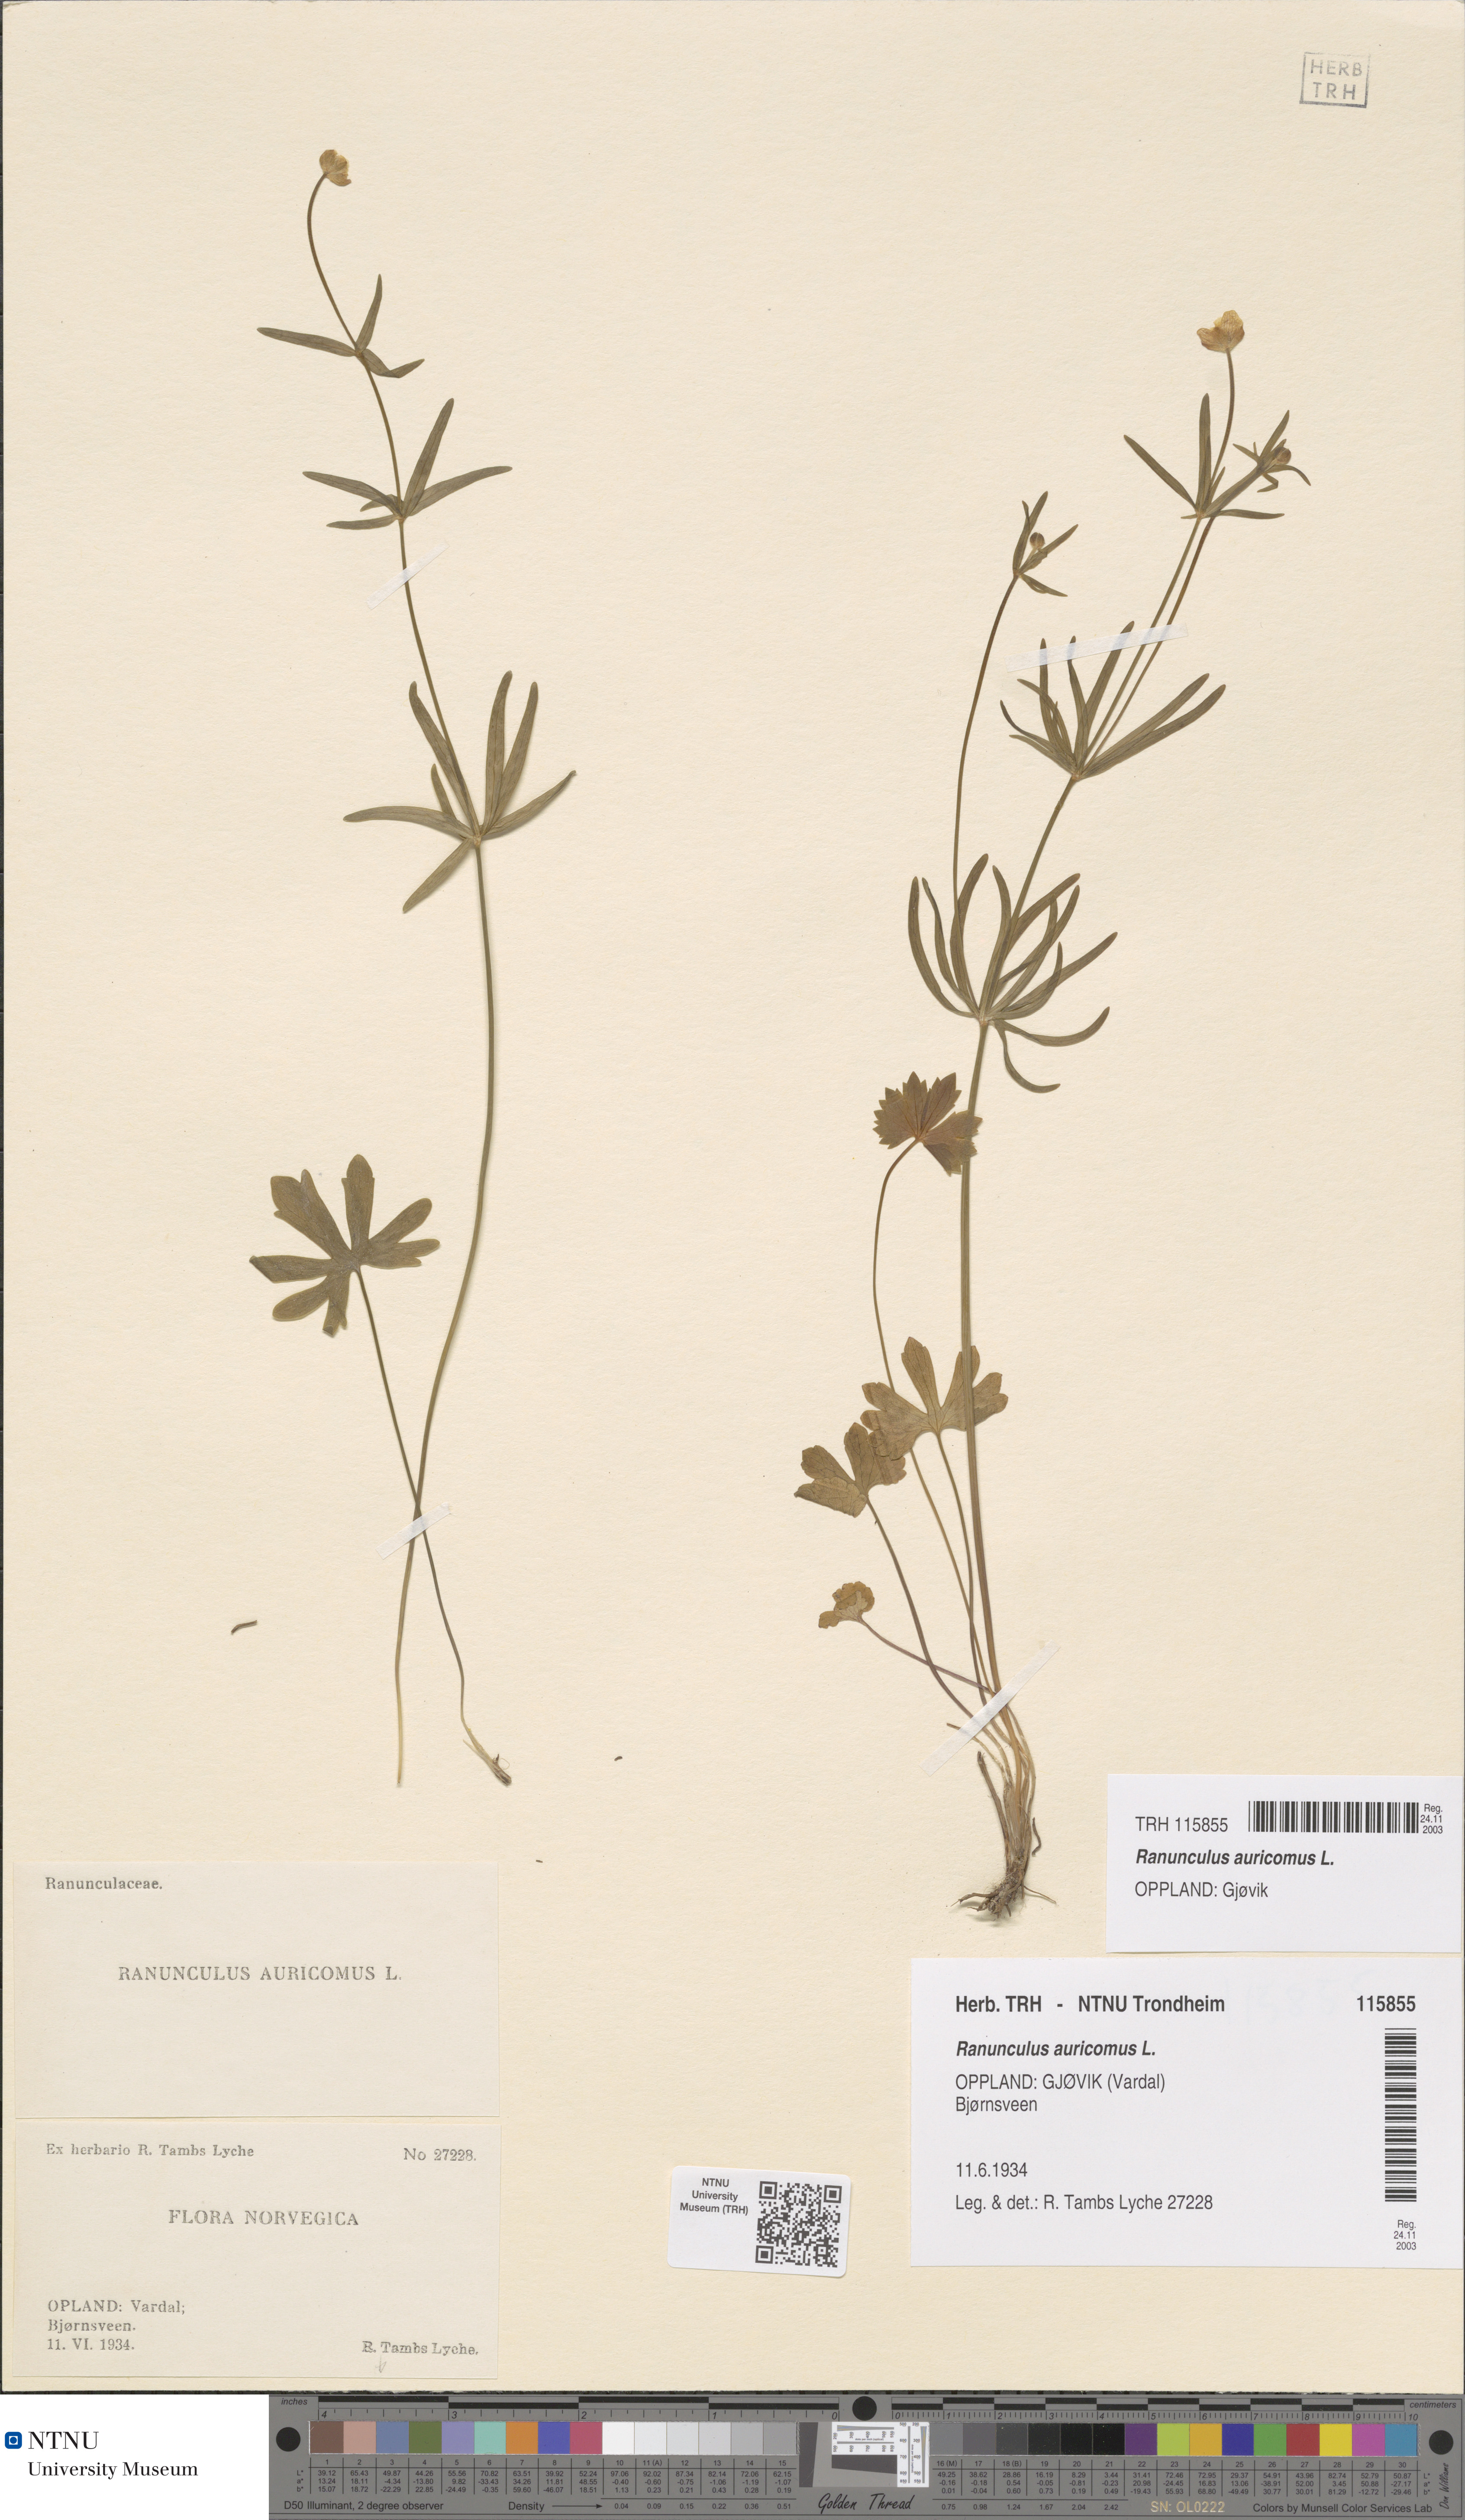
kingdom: Plantae
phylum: Tracheophyta
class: Magnoliopsida
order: Ranunculales
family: Ranunculaceae
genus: Ranunculus
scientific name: Ranunculus auricomus
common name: Goldilocks buttercup
